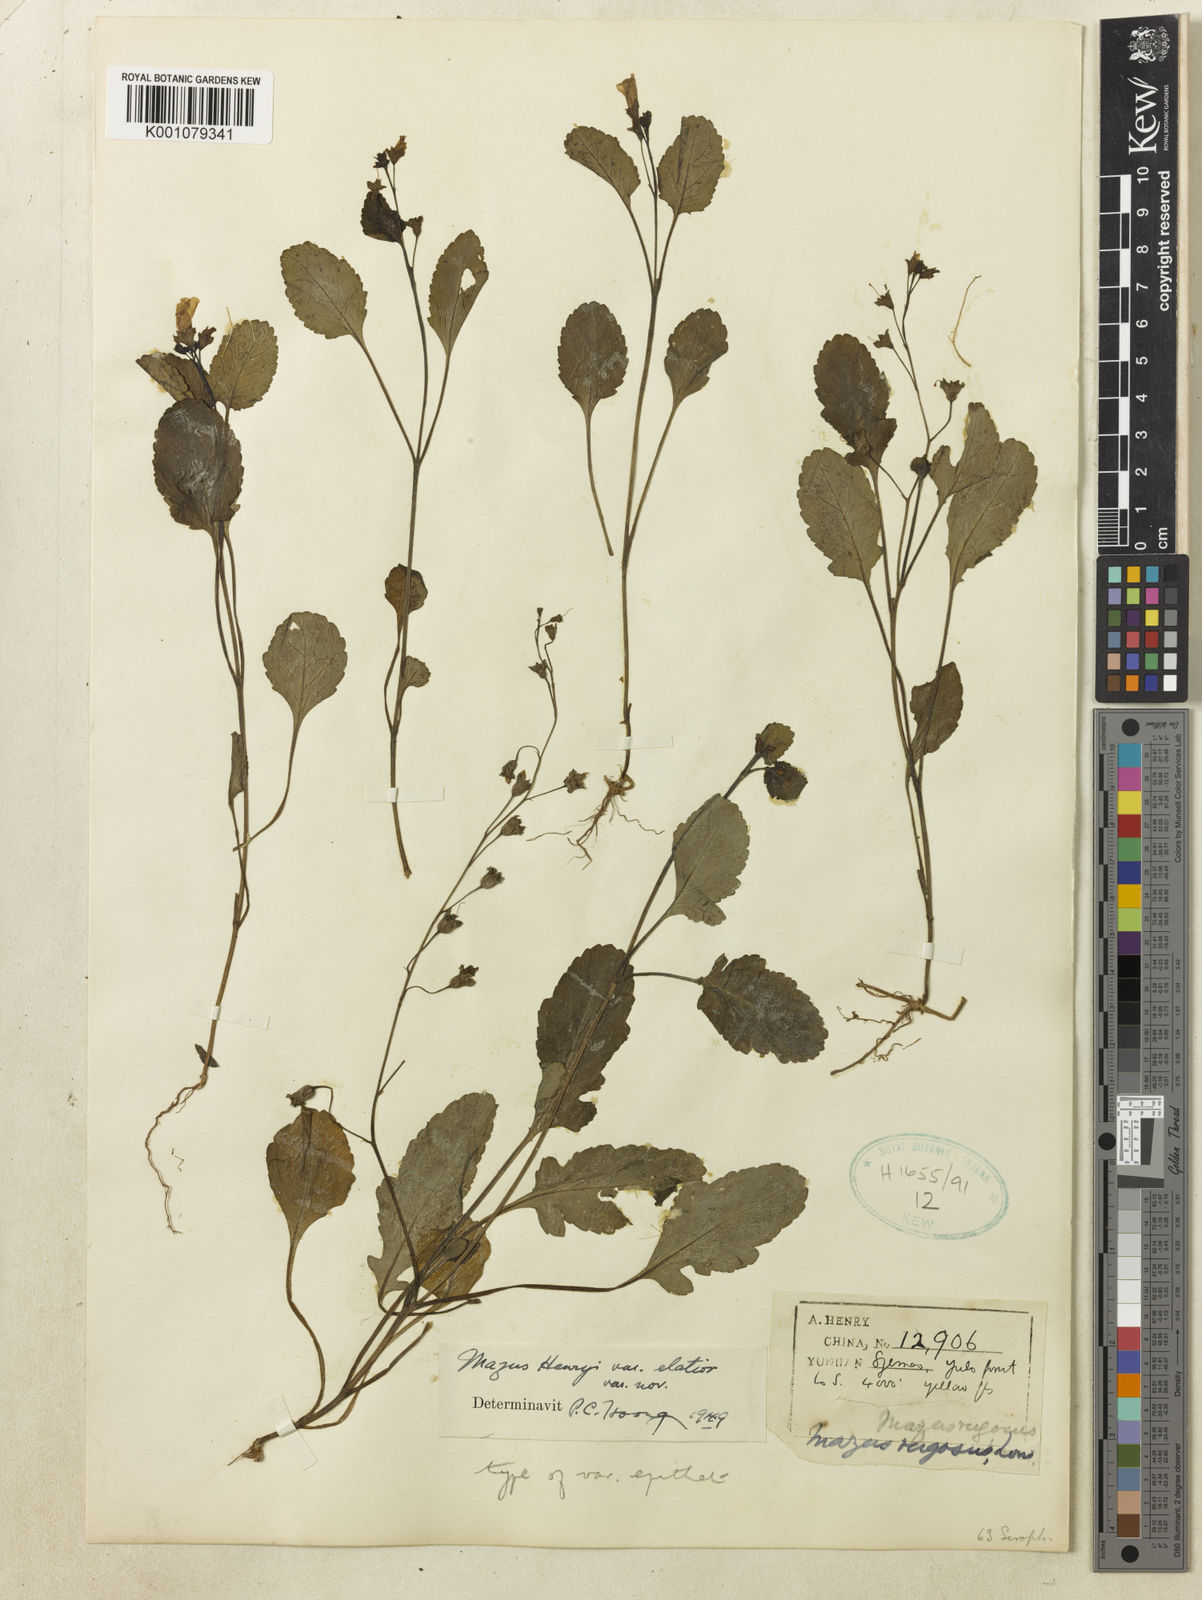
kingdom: Plantae
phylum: Tracheophyta
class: Magnoliopsida
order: Lamiales
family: Mazaceae
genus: Mazus
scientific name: Mazus henryi
